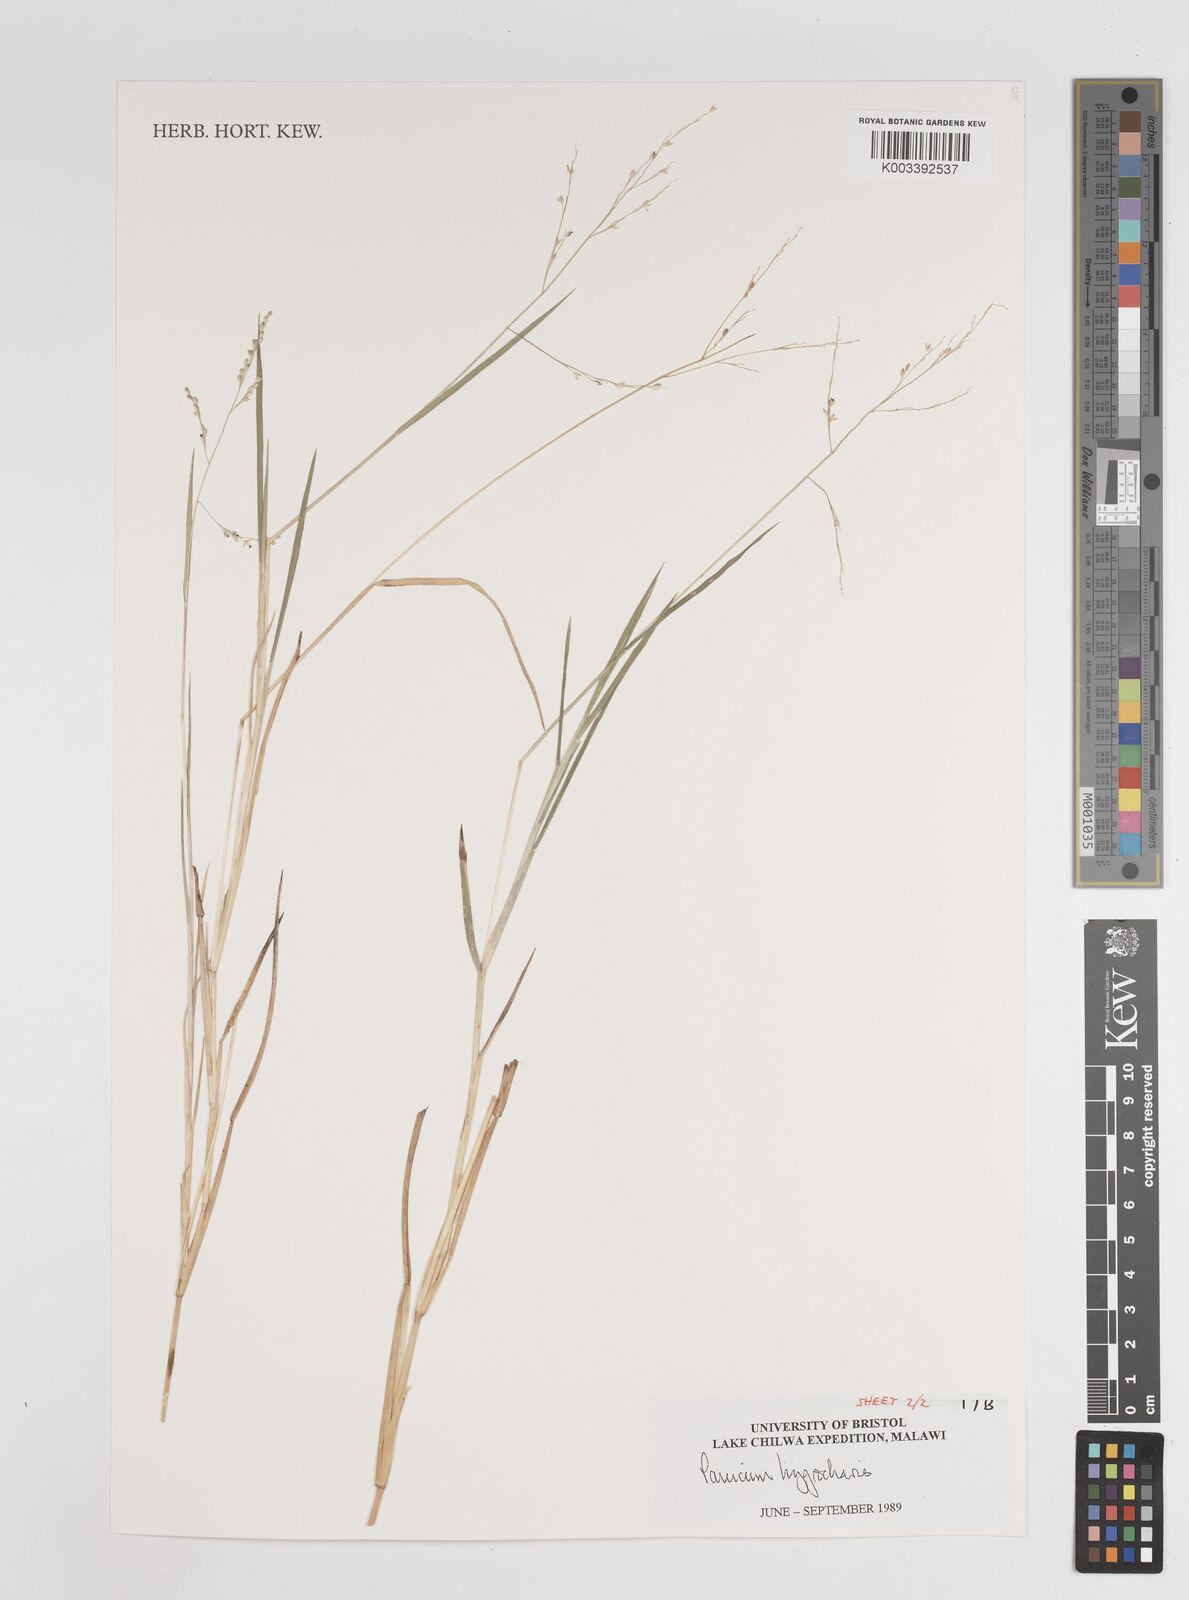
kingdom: Plantae
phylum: Tracheophyta
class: Liliopsida
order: Poales
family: Poaceae
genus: Panicum
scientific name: Panicum hygrocharis
